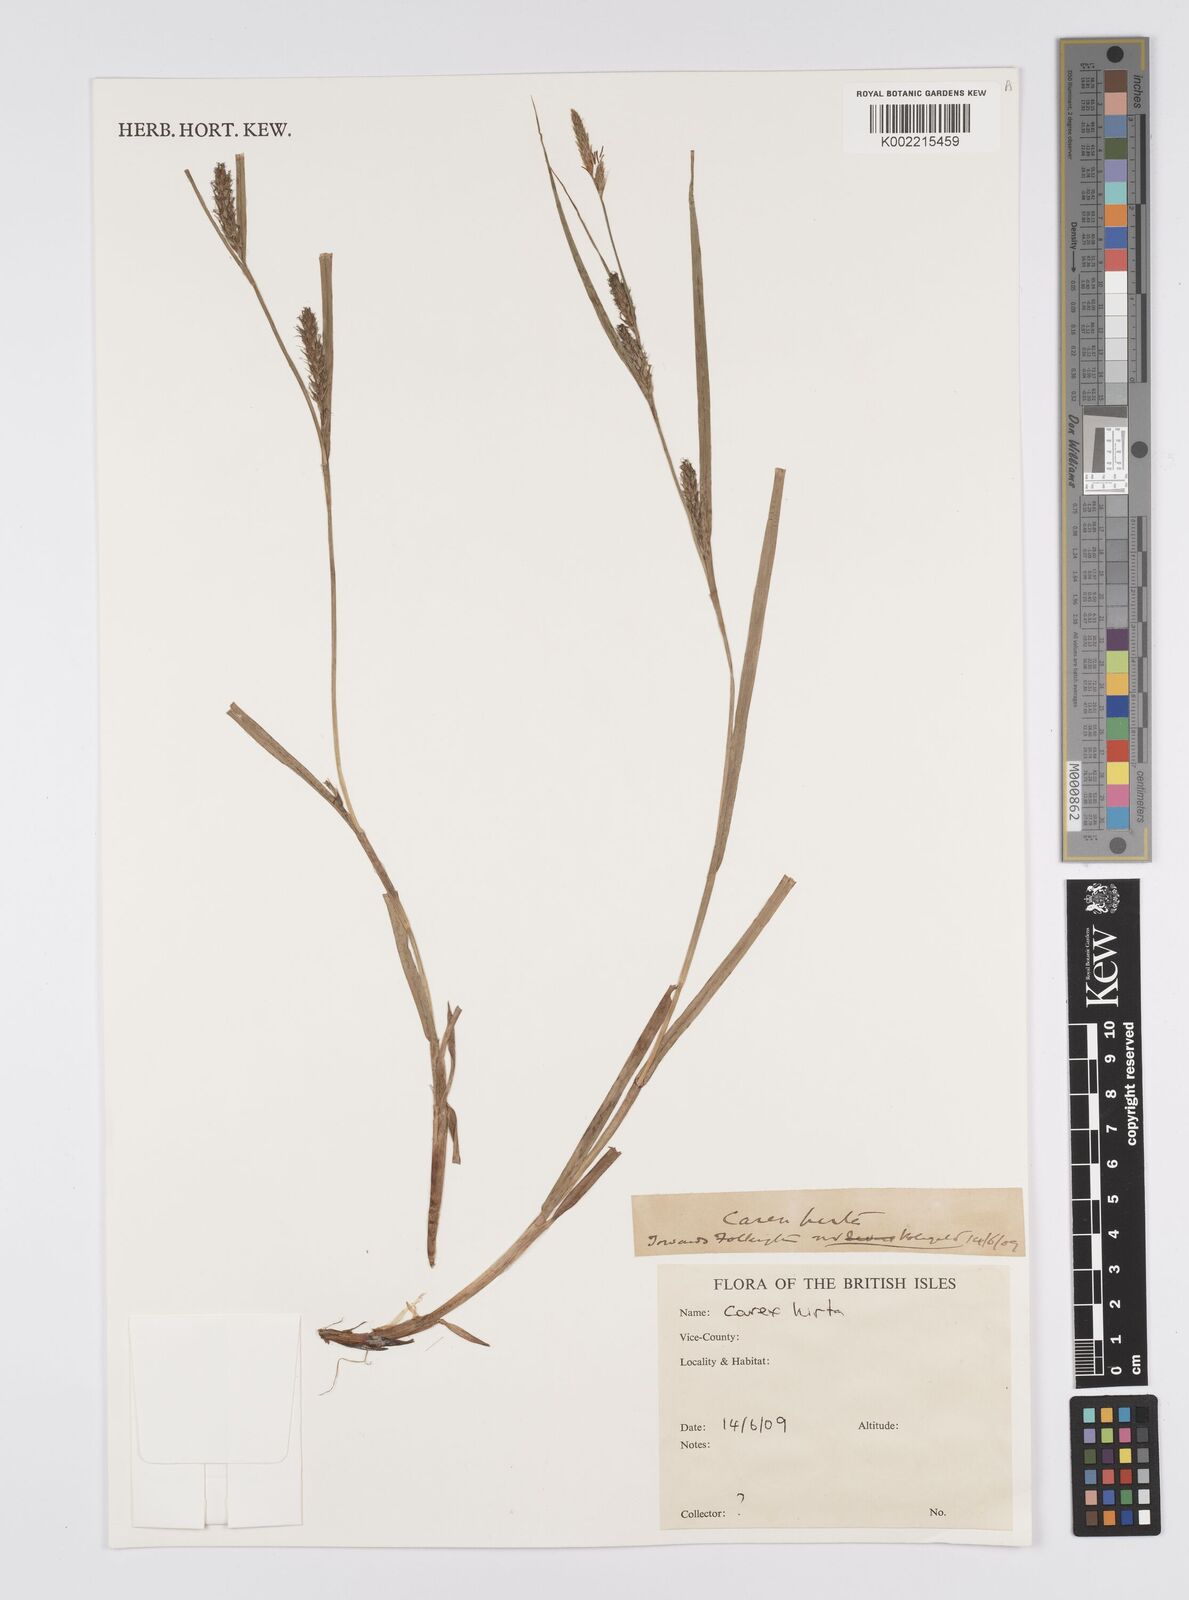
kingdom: Plantae
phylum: Tracheophyta
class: Liliopsida
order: Poales
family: Cyperaceae
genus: Carex
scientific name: Carex hirta
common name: Hairy sedge
